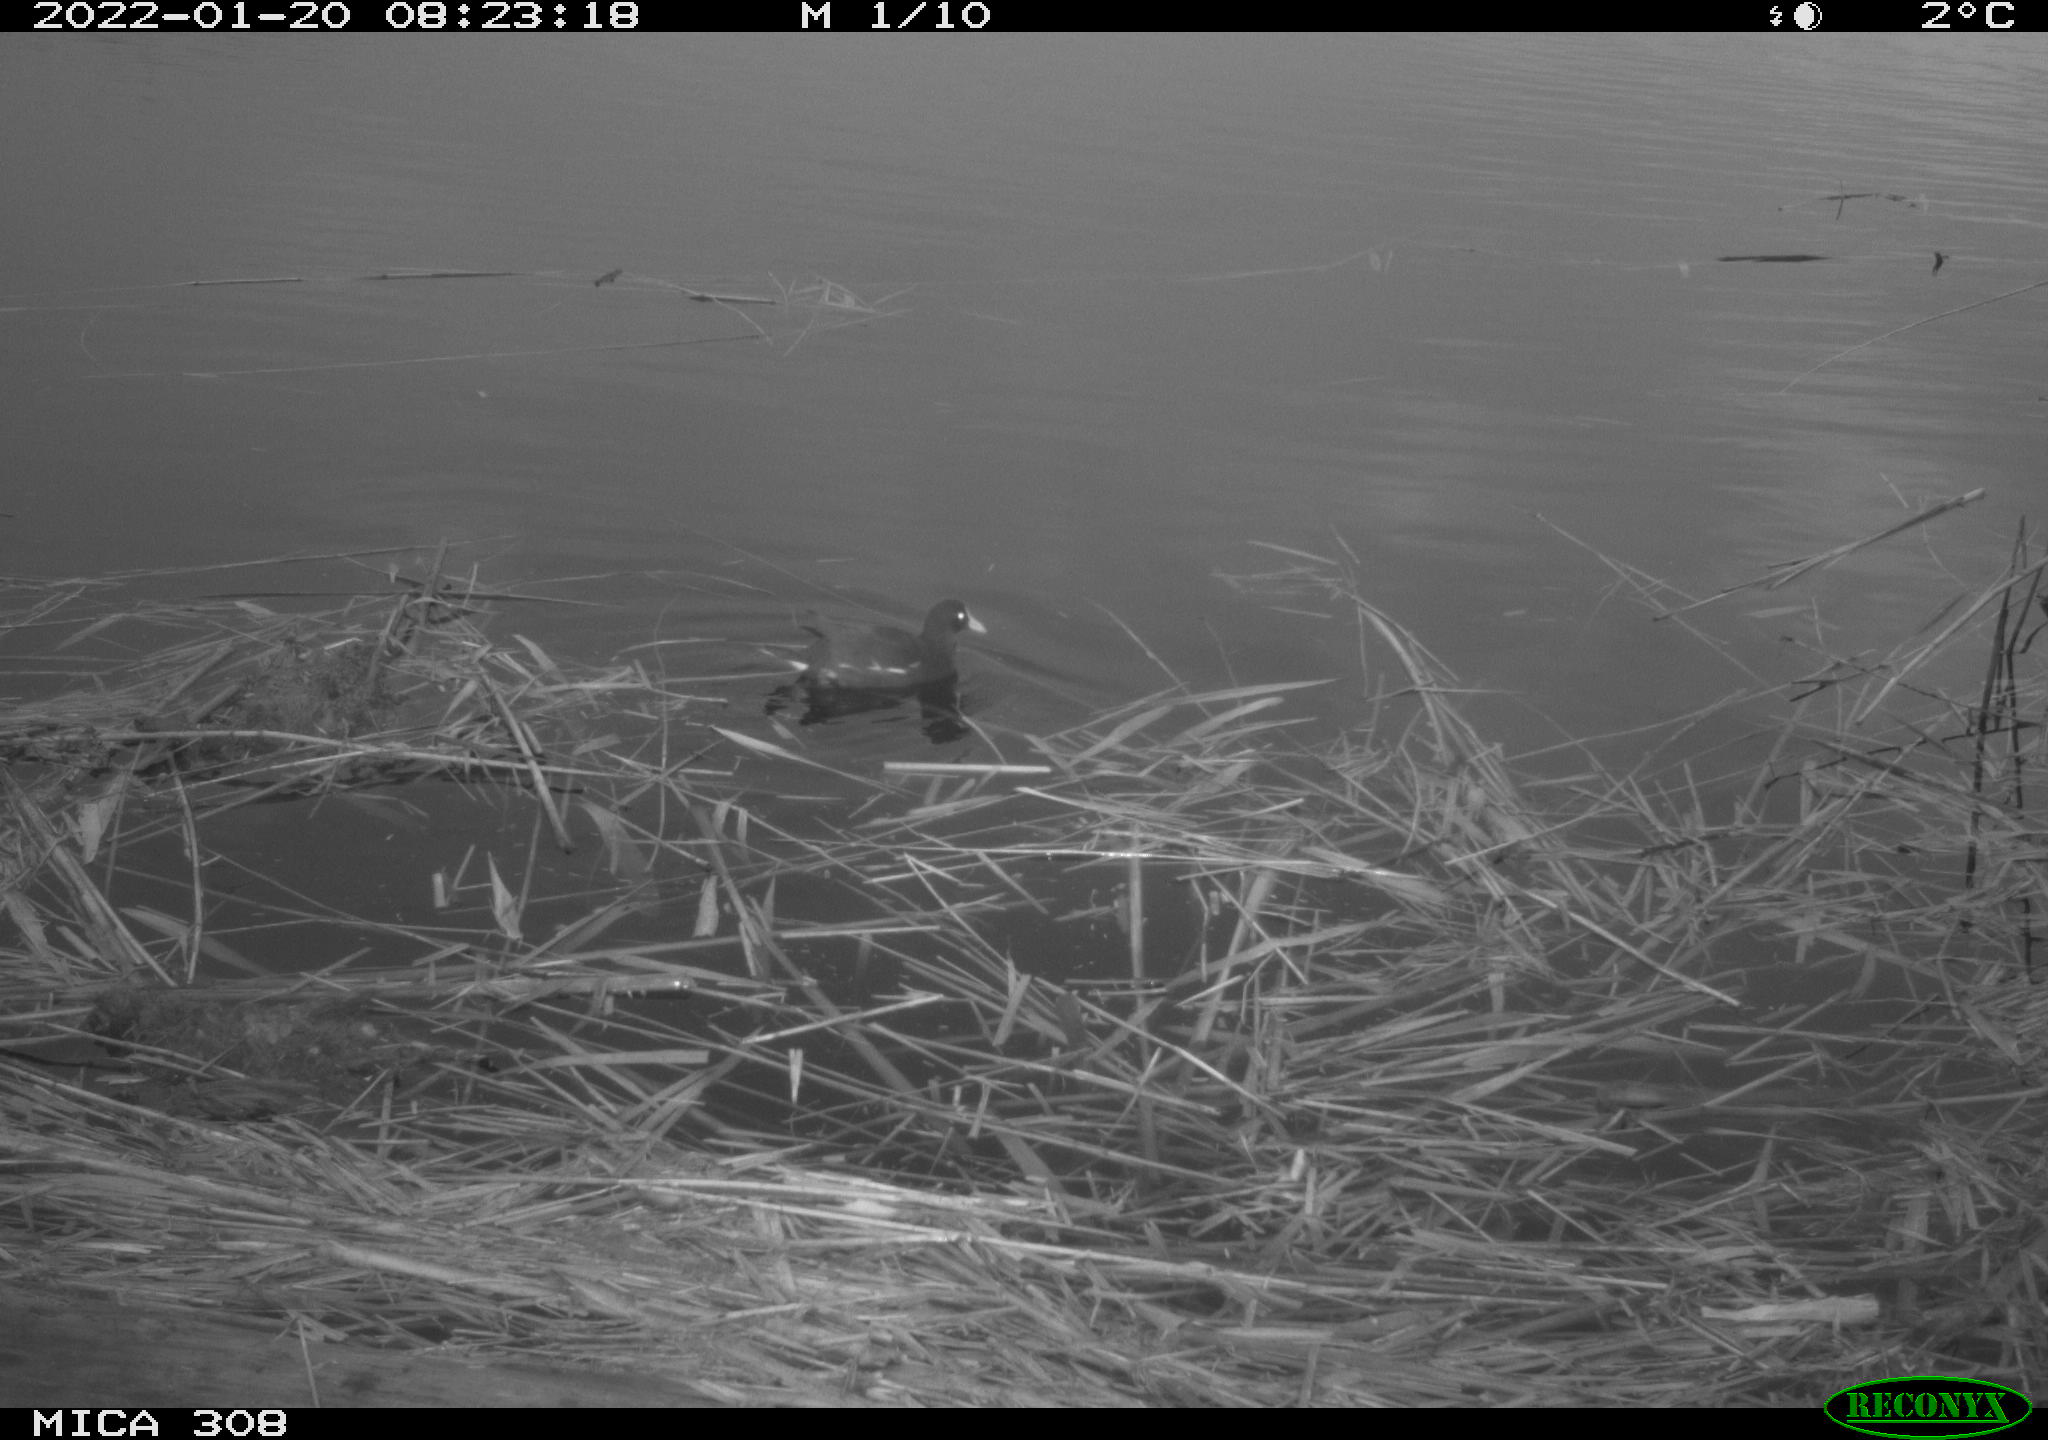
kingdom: Animalia
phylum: Chordata
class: Aves
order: Gruiformes
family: Rallidae
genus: Gallinula
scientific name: Gallinula chloropus
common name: Common moorhen
